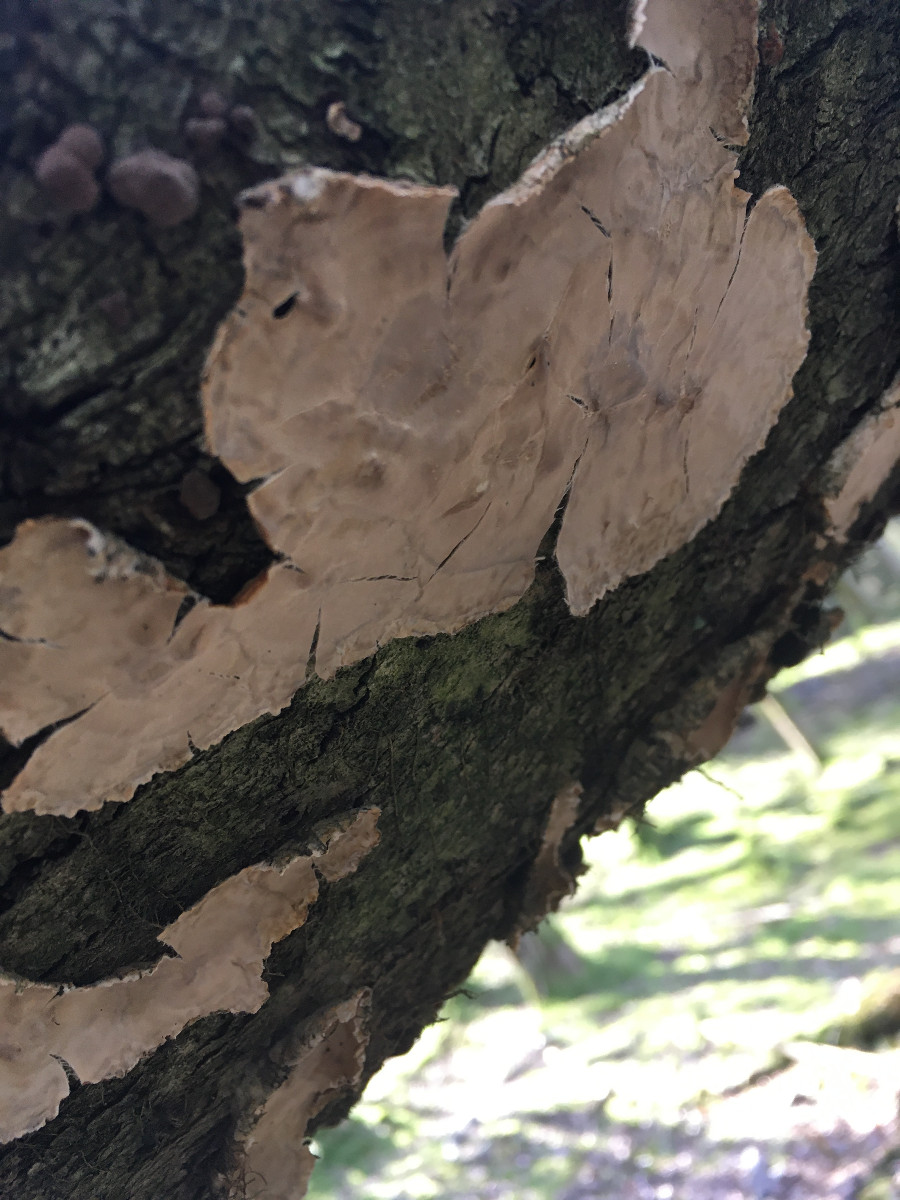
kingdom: Fungi
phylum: Basidiomycota
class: Agaricomycetes
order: Agaricales
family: Physalacriaceae
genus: Cylindrobasidium
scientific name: Cylindrobasidium evolvens
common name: sprækkehinde
